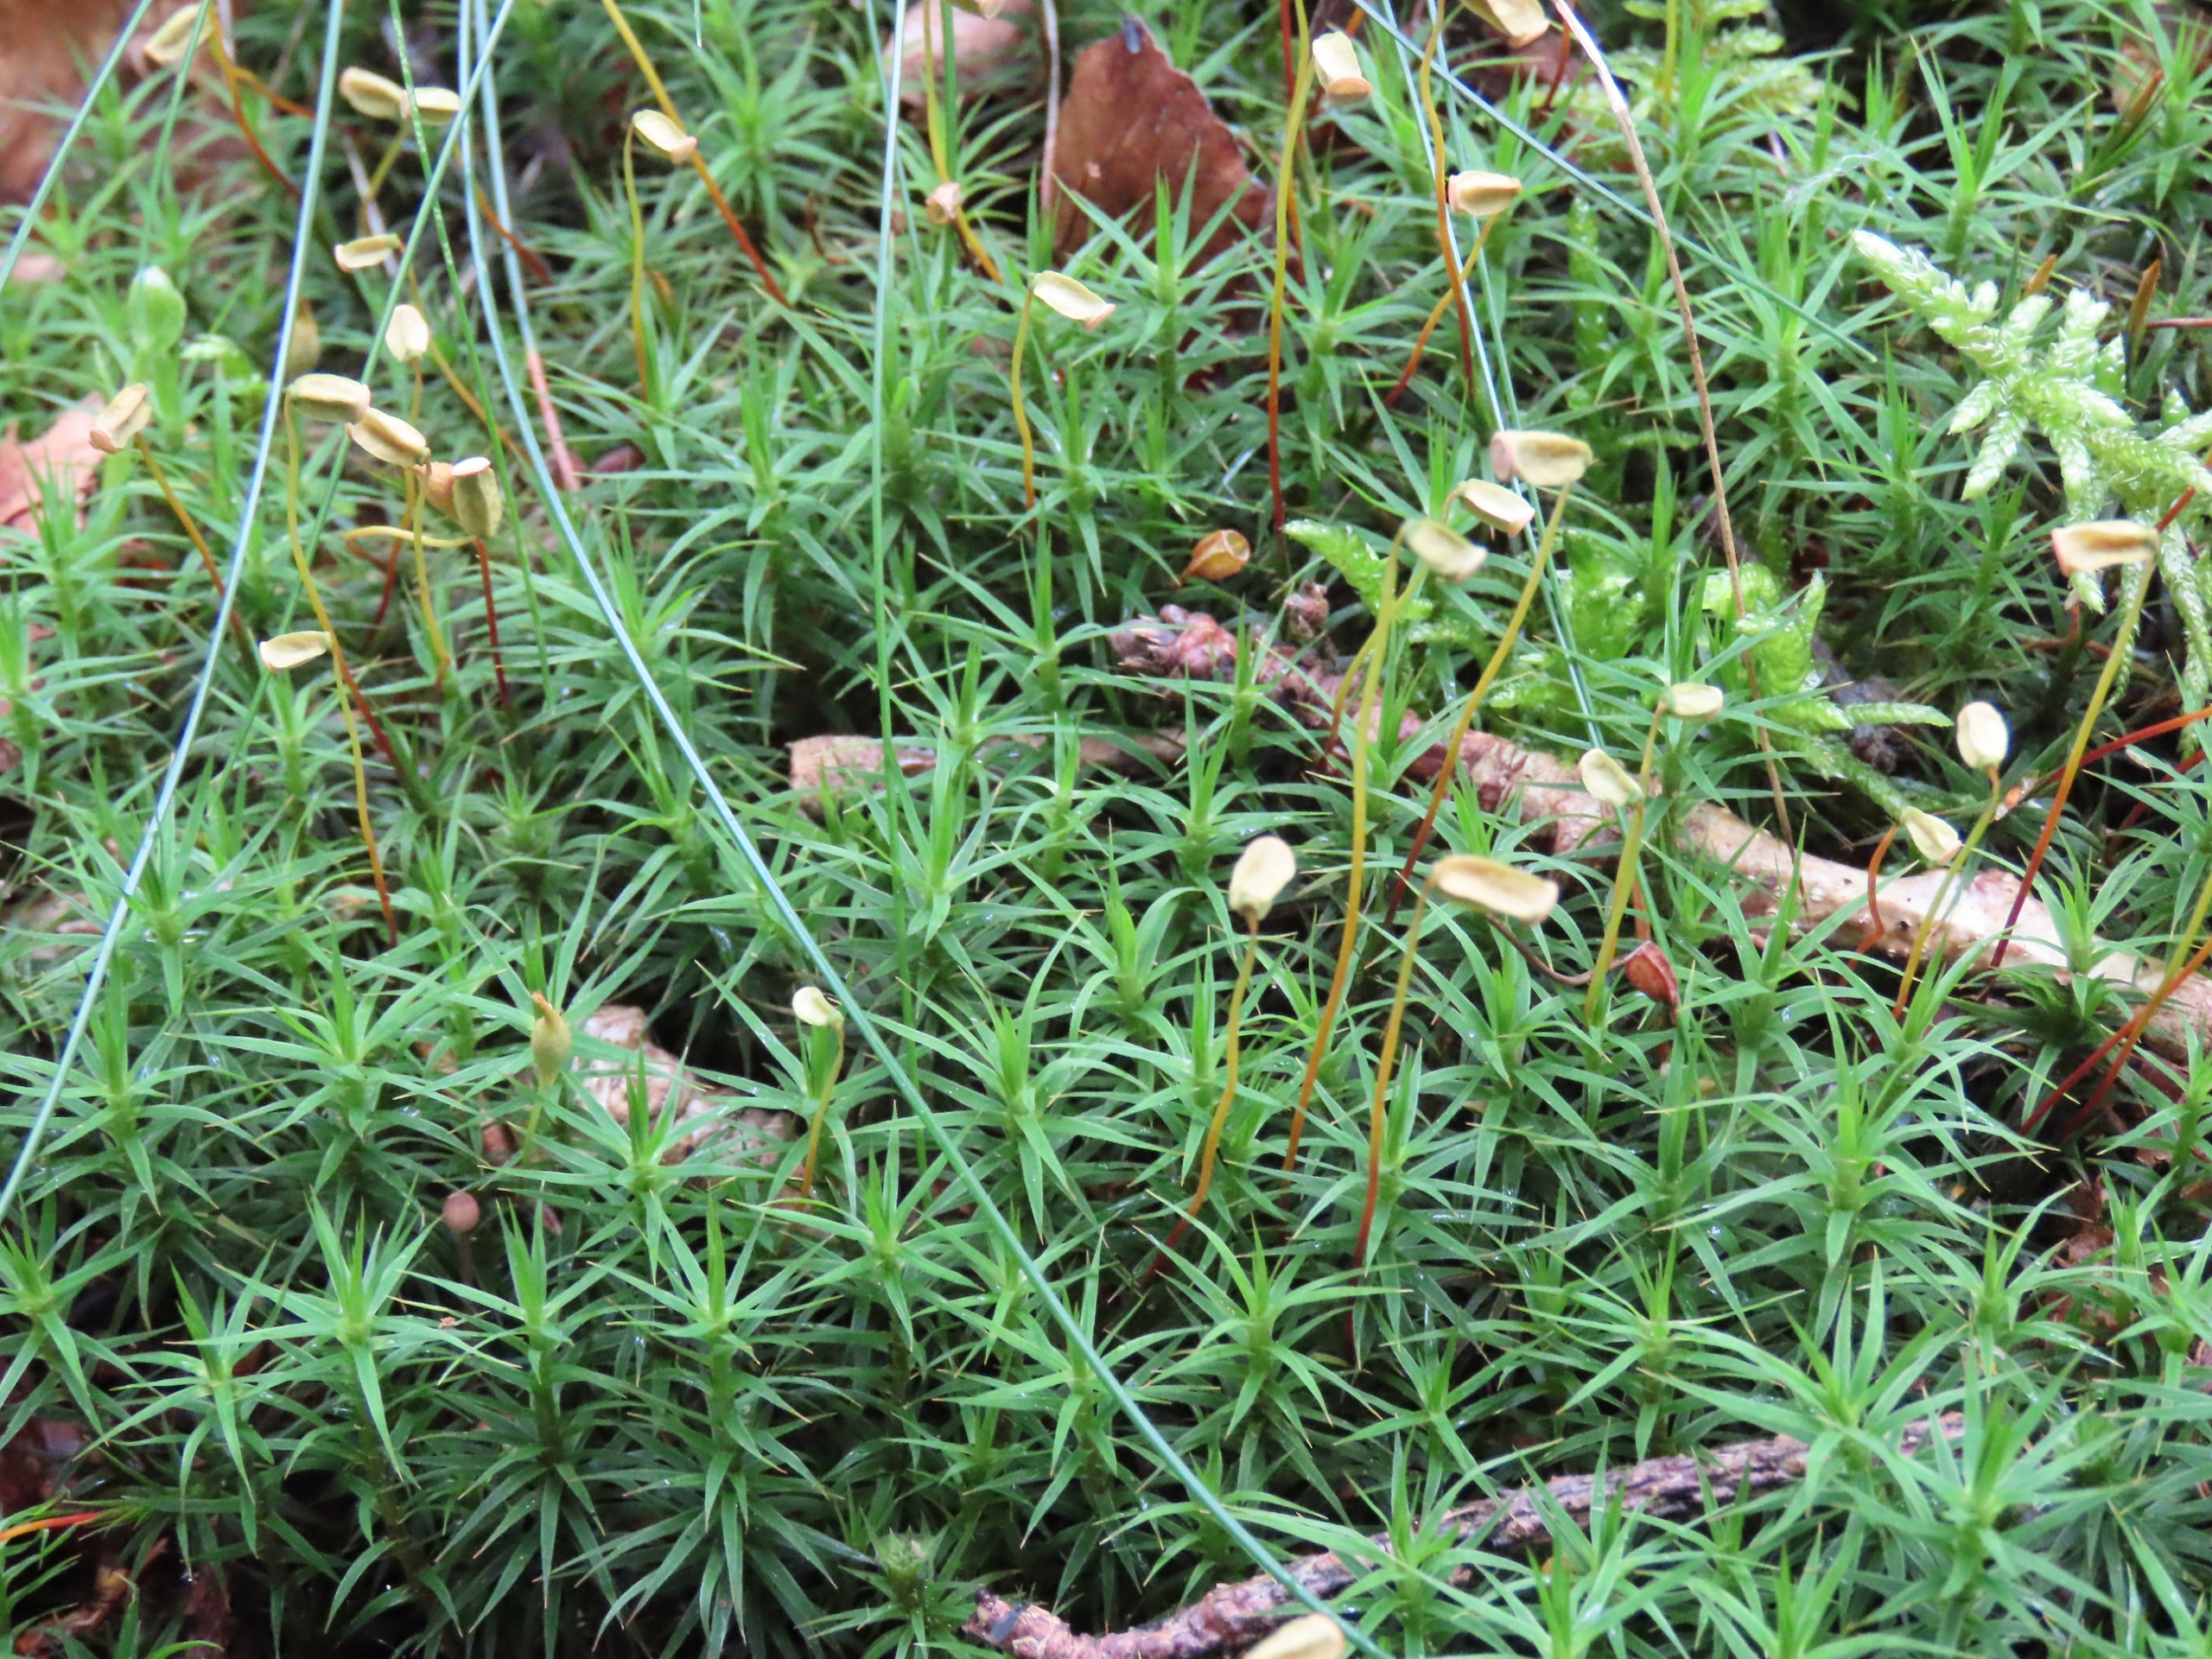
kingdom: Plantae
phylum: Bryophyta
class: Polytrichopsida
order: Polytrichales
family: Polytrichaceae
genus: Polytrichum
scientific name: Polytrichum formosum
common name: Skov-jomfruhår
